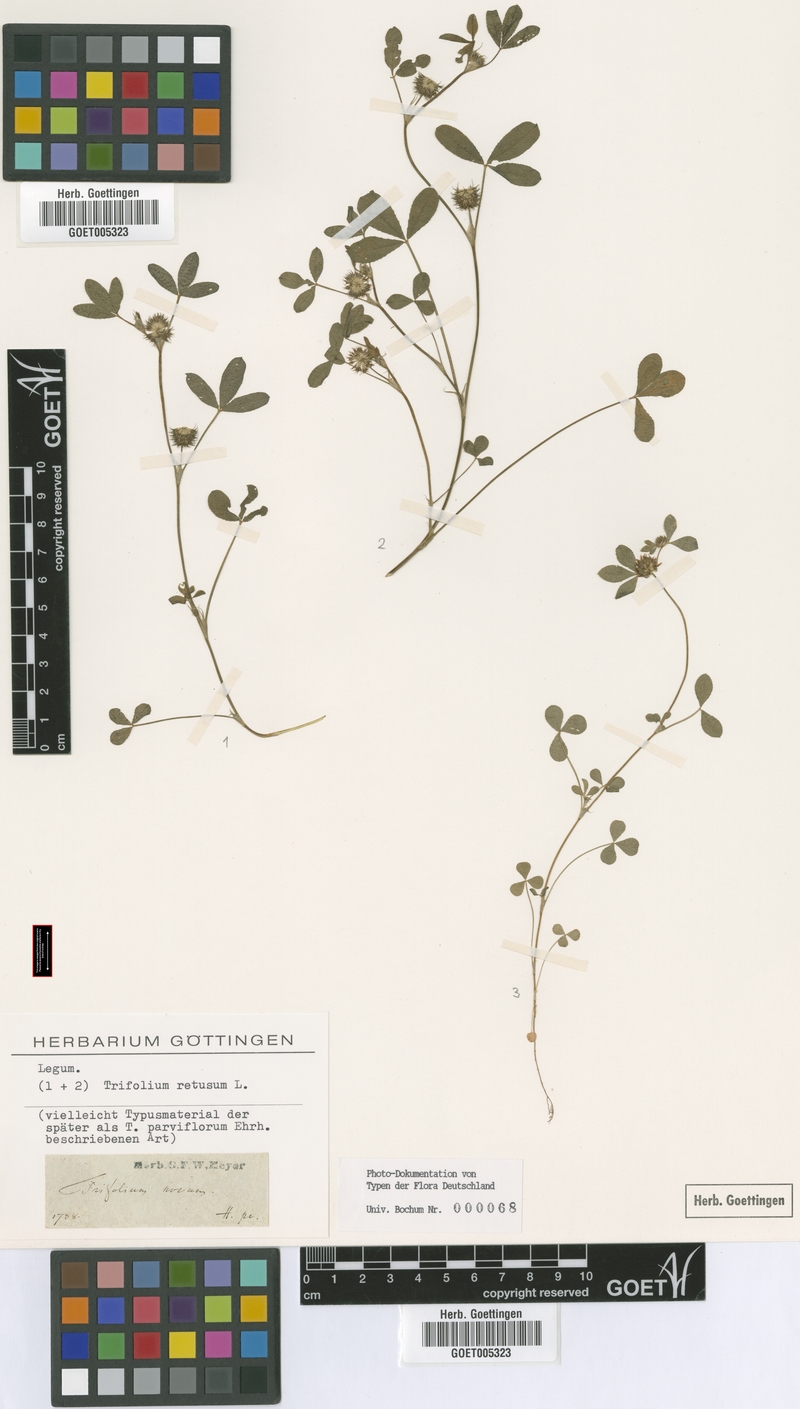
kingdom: Plantae
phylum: Tracheophyta
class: Magnoliopsida
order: Fabales
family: Fabaceae
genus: Trifolium
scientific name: Trifolium retusum
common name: Teasel clover
